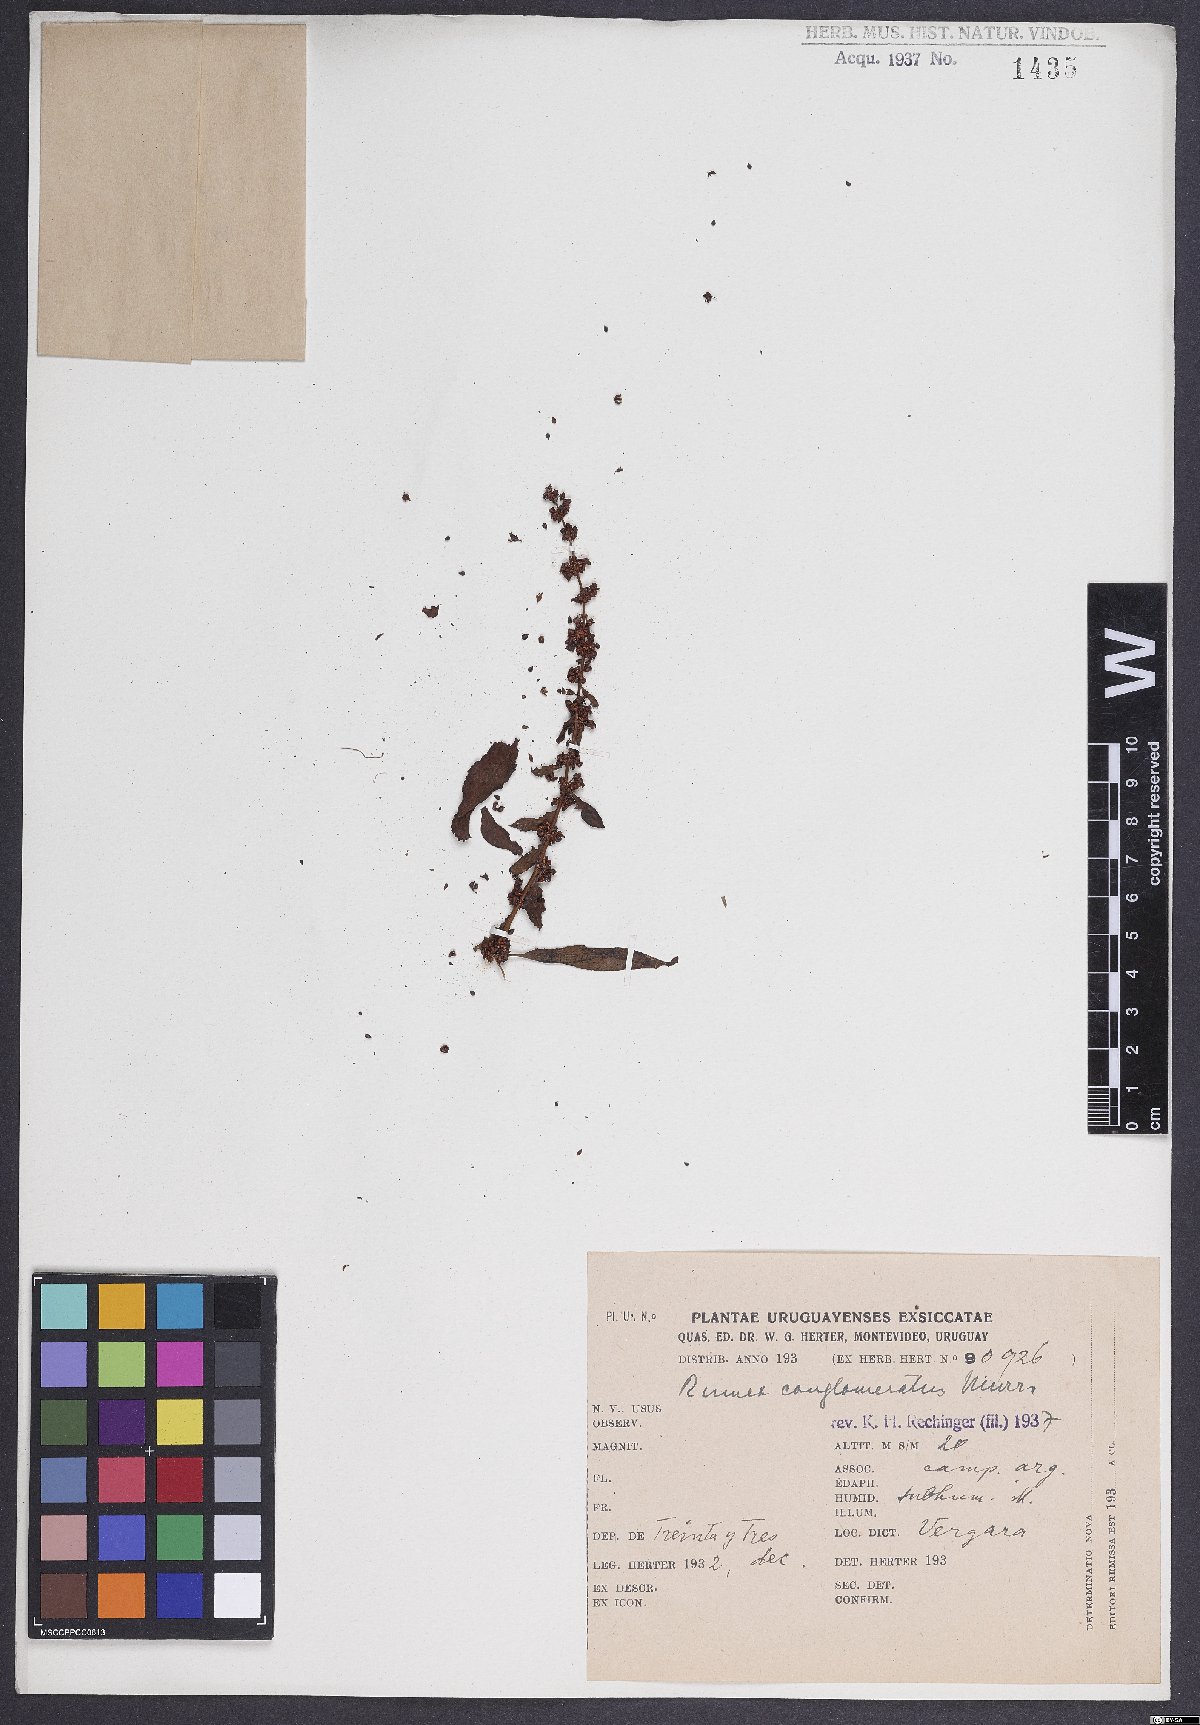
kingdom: Plantae
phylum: Tracheophyta
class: Magnoliopsida
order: Caryophyllales
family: Polygonaceae
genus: Rumex
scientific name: Rumex conglomeratus
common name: Clustered dock
